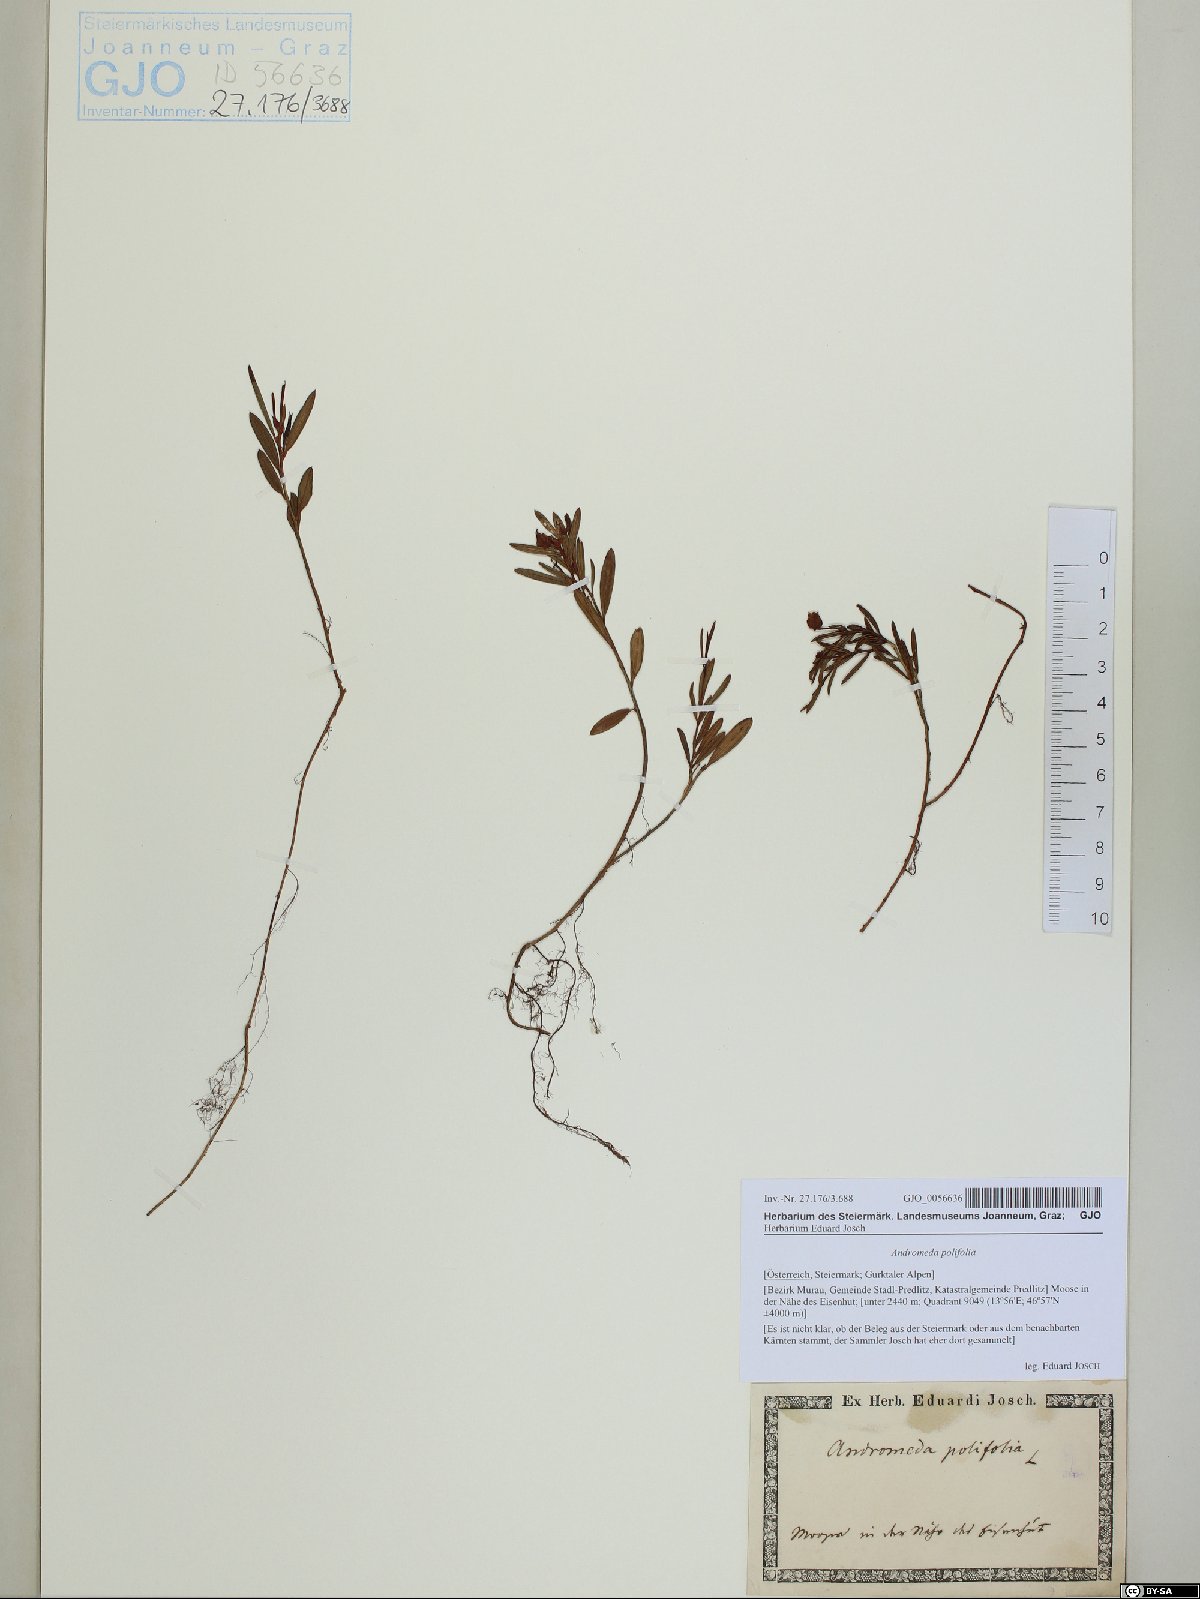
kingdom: Plantae
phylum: Tracheophyta
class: Magnoliopsida
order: Ericales
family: Ericaceae
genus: Andromeda
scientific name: Andromeda polifolia
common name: Bog-rosemary
